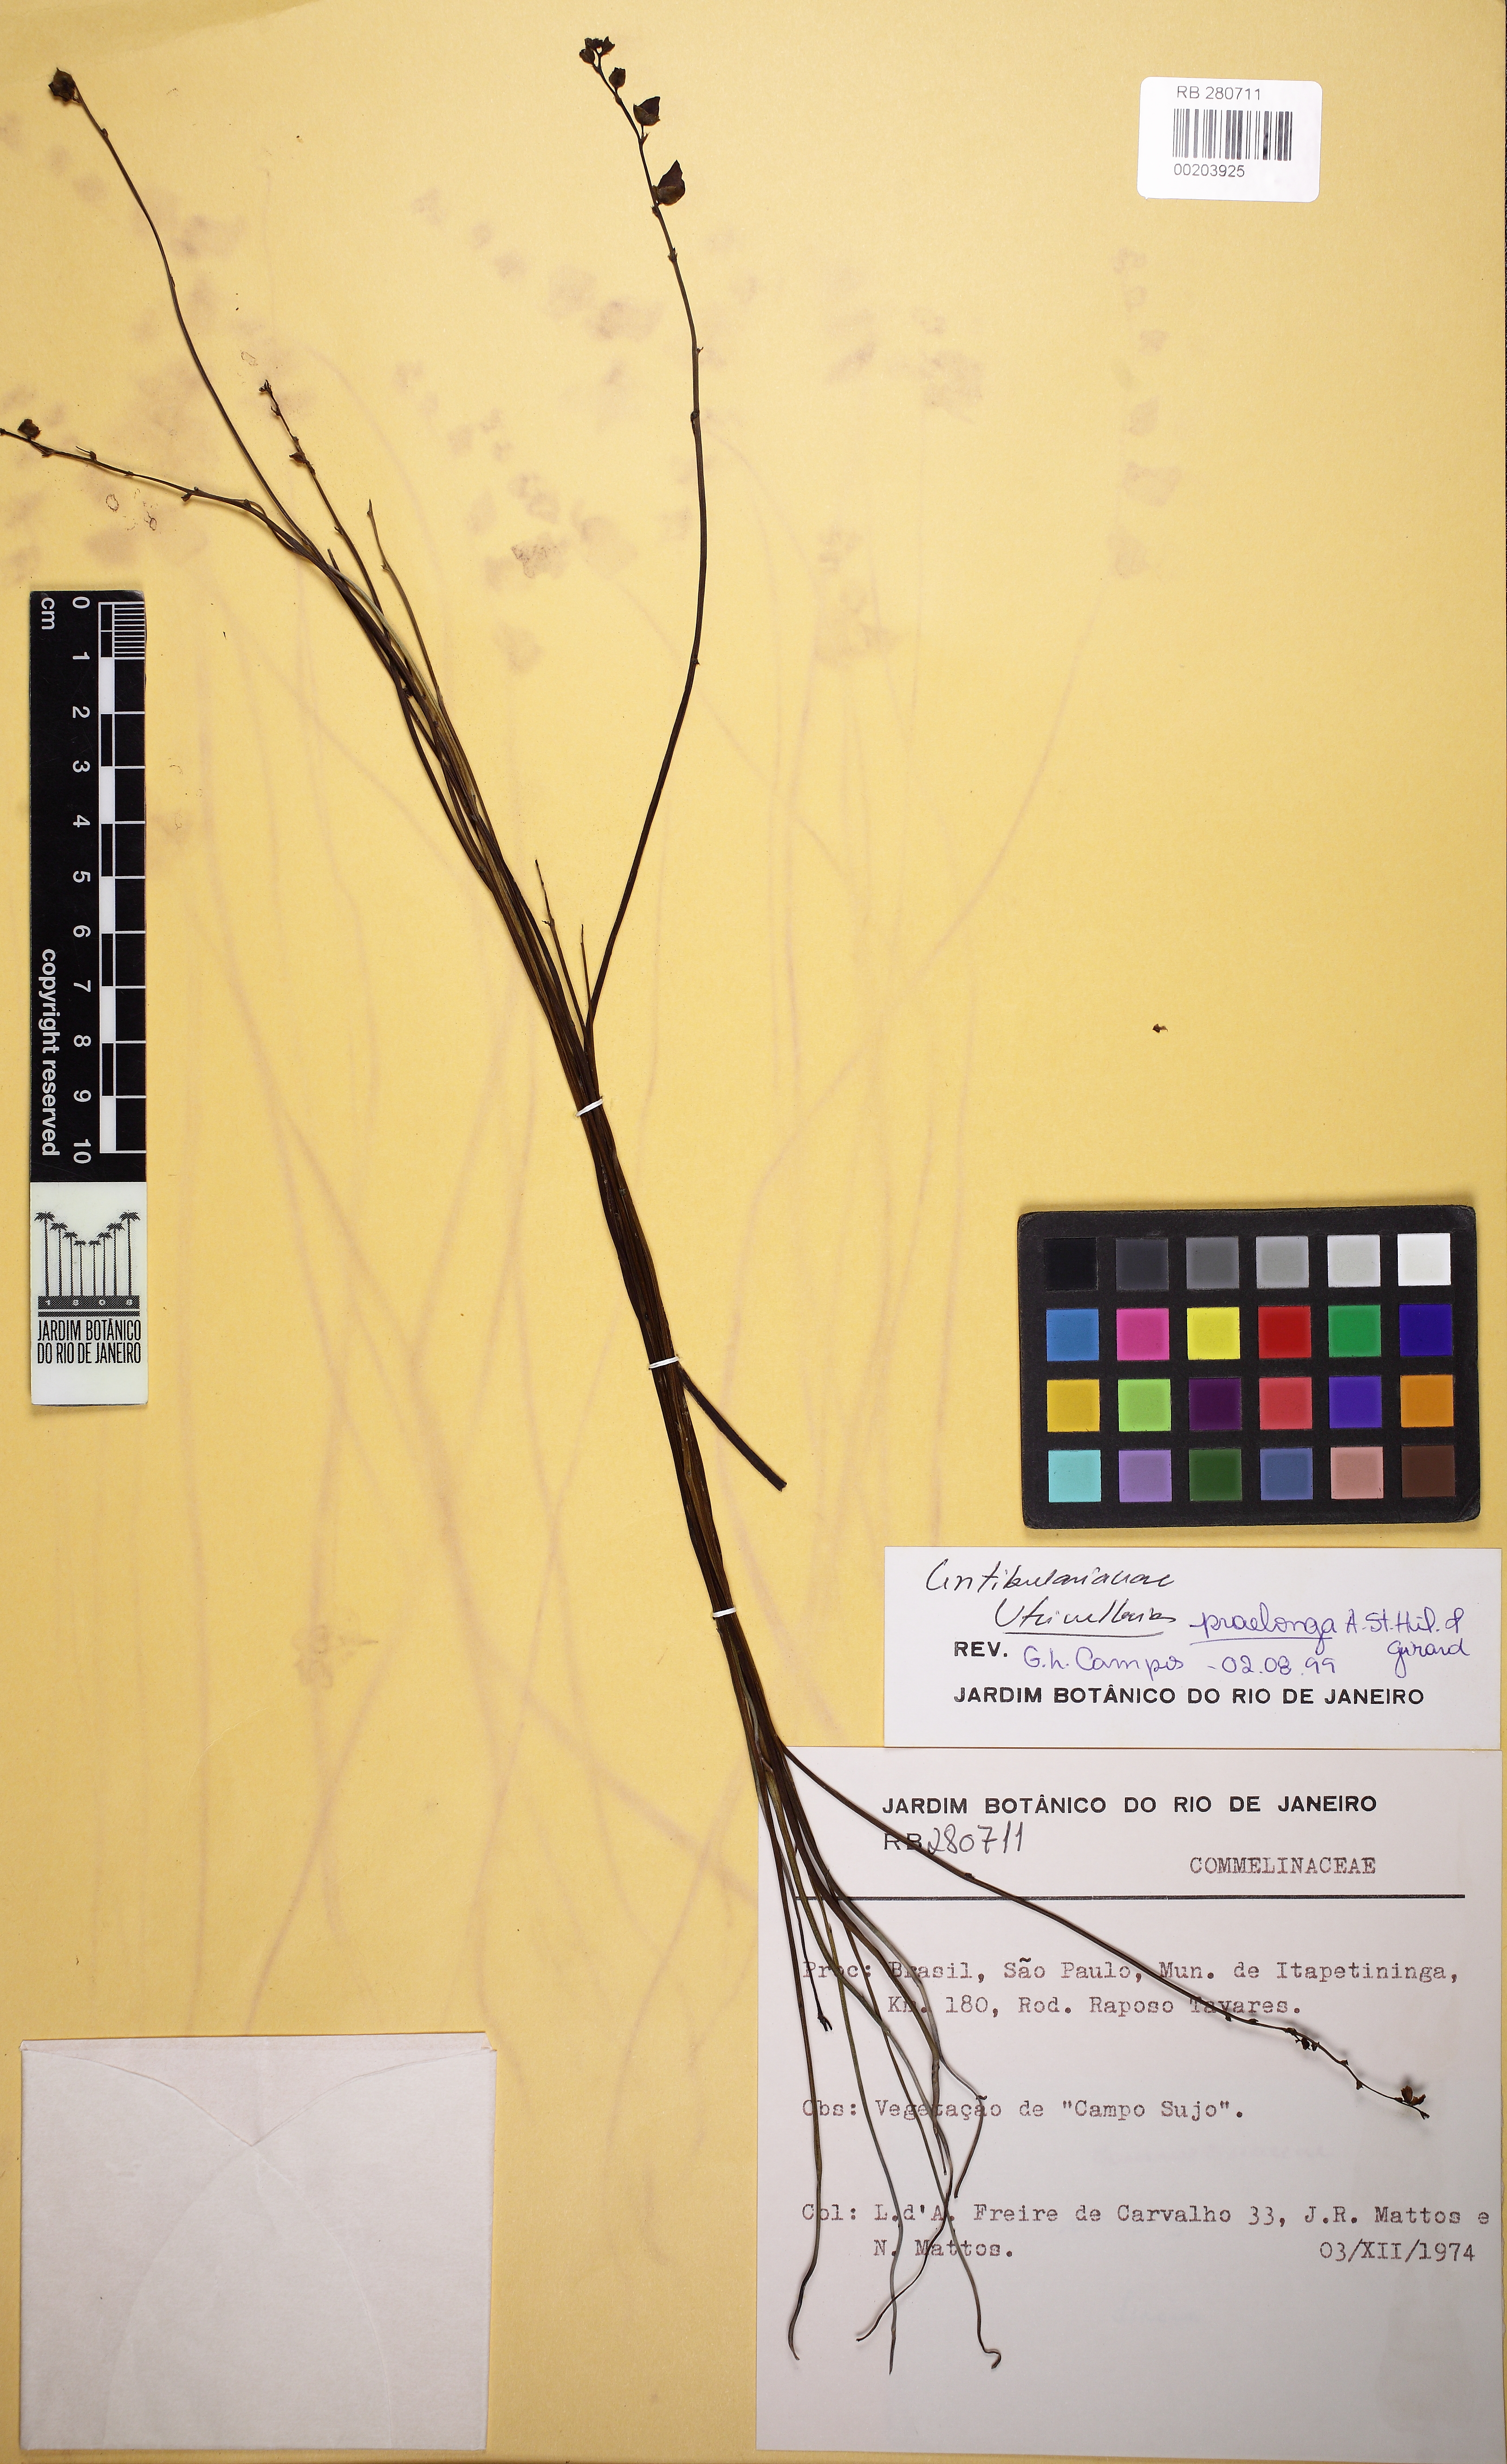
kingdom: Plantae
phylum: Tracheophyta
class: Magnoliopsida
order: Lamiales
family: Lentibulariaceae
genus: Utricularia
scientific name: Utricularia praelonga
